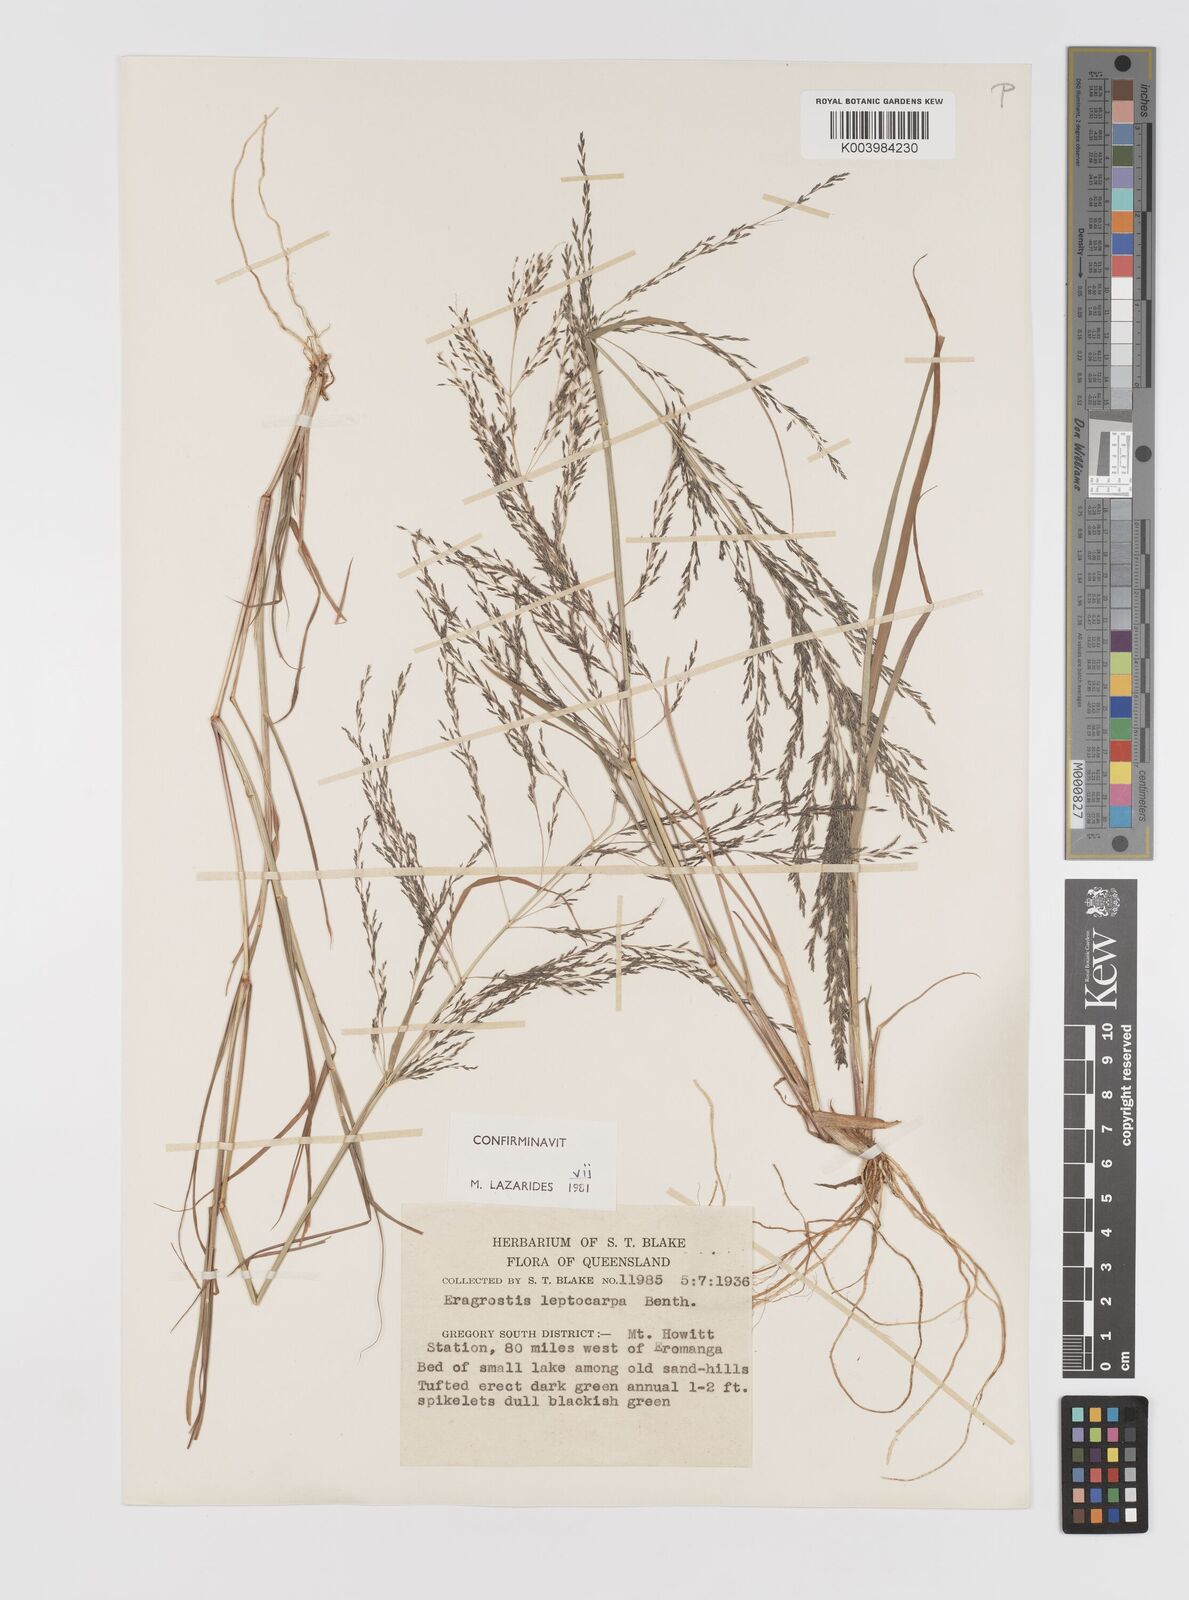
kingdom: Plantae
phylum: Tracheophyta
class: Liliopsida
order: Poales
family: Poaceae
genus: Eragrostis
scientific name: Eragrostis leptocarpa
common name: Drooping love grass
